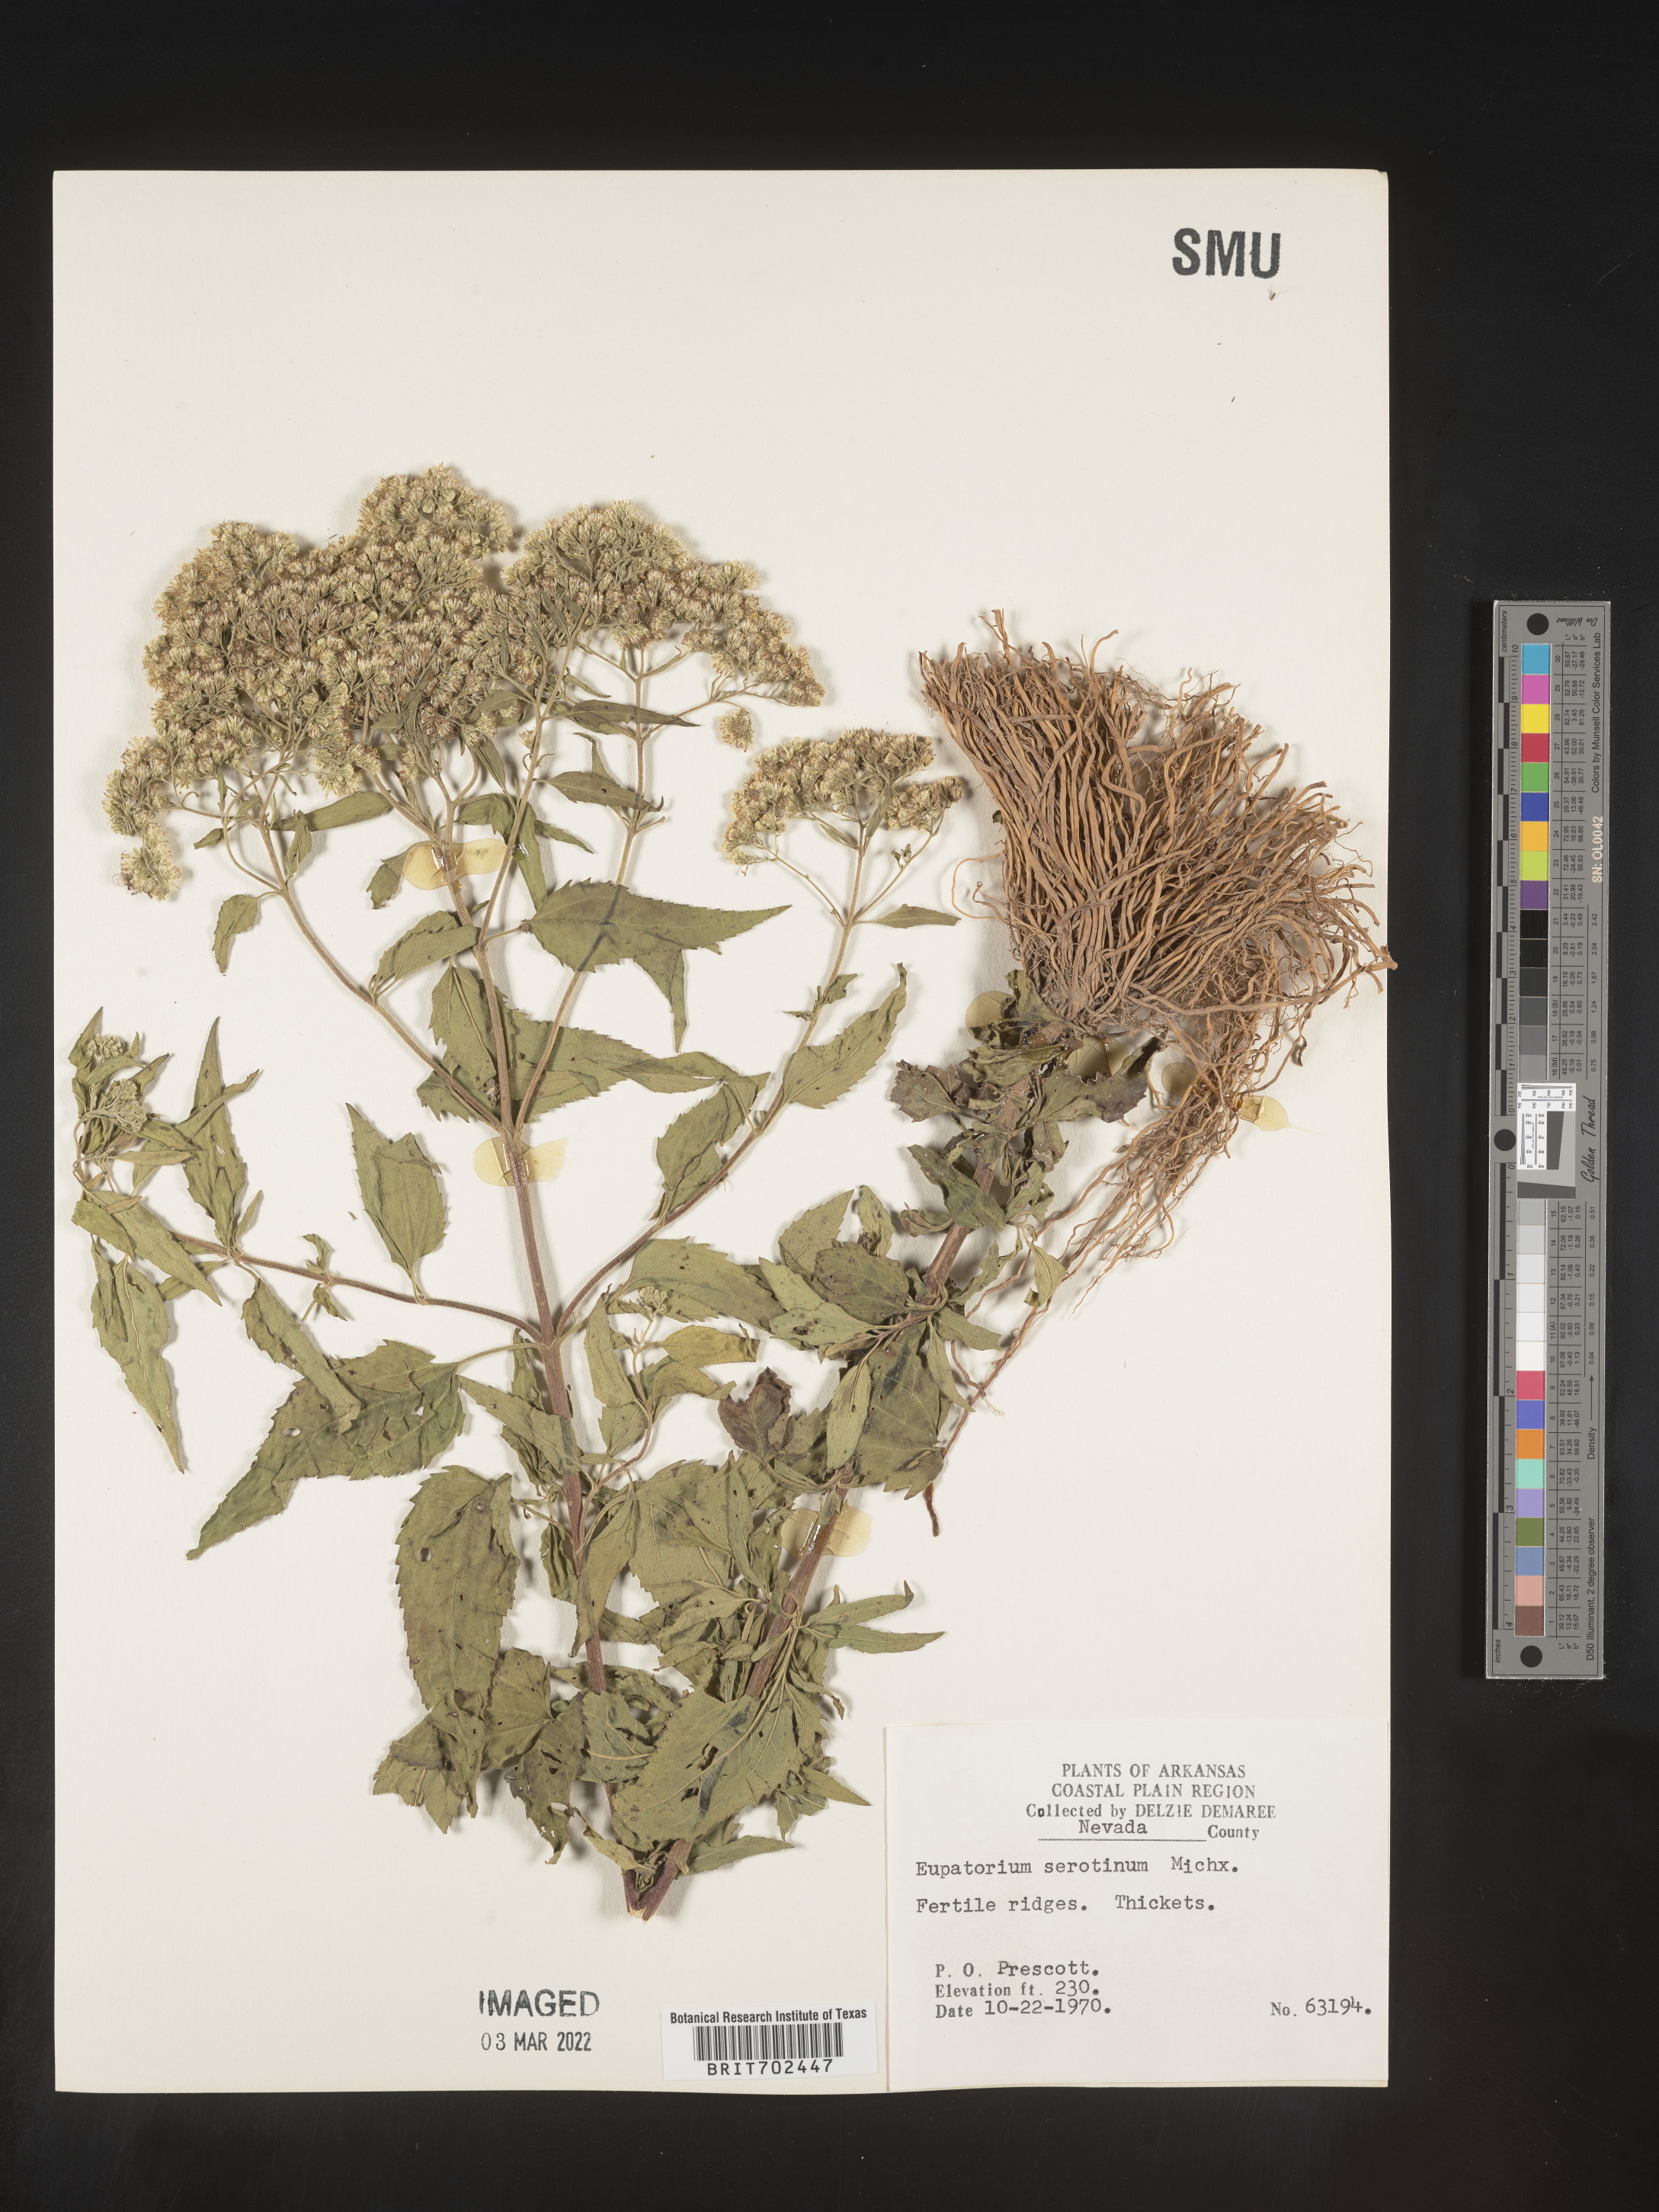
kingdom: Plantae
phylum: Tracheophyta
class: Magnoliopsida
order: Asterales
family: Asteraceae
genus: Eupatorium
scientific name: Eupatorium serotinum
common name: Late boneset
